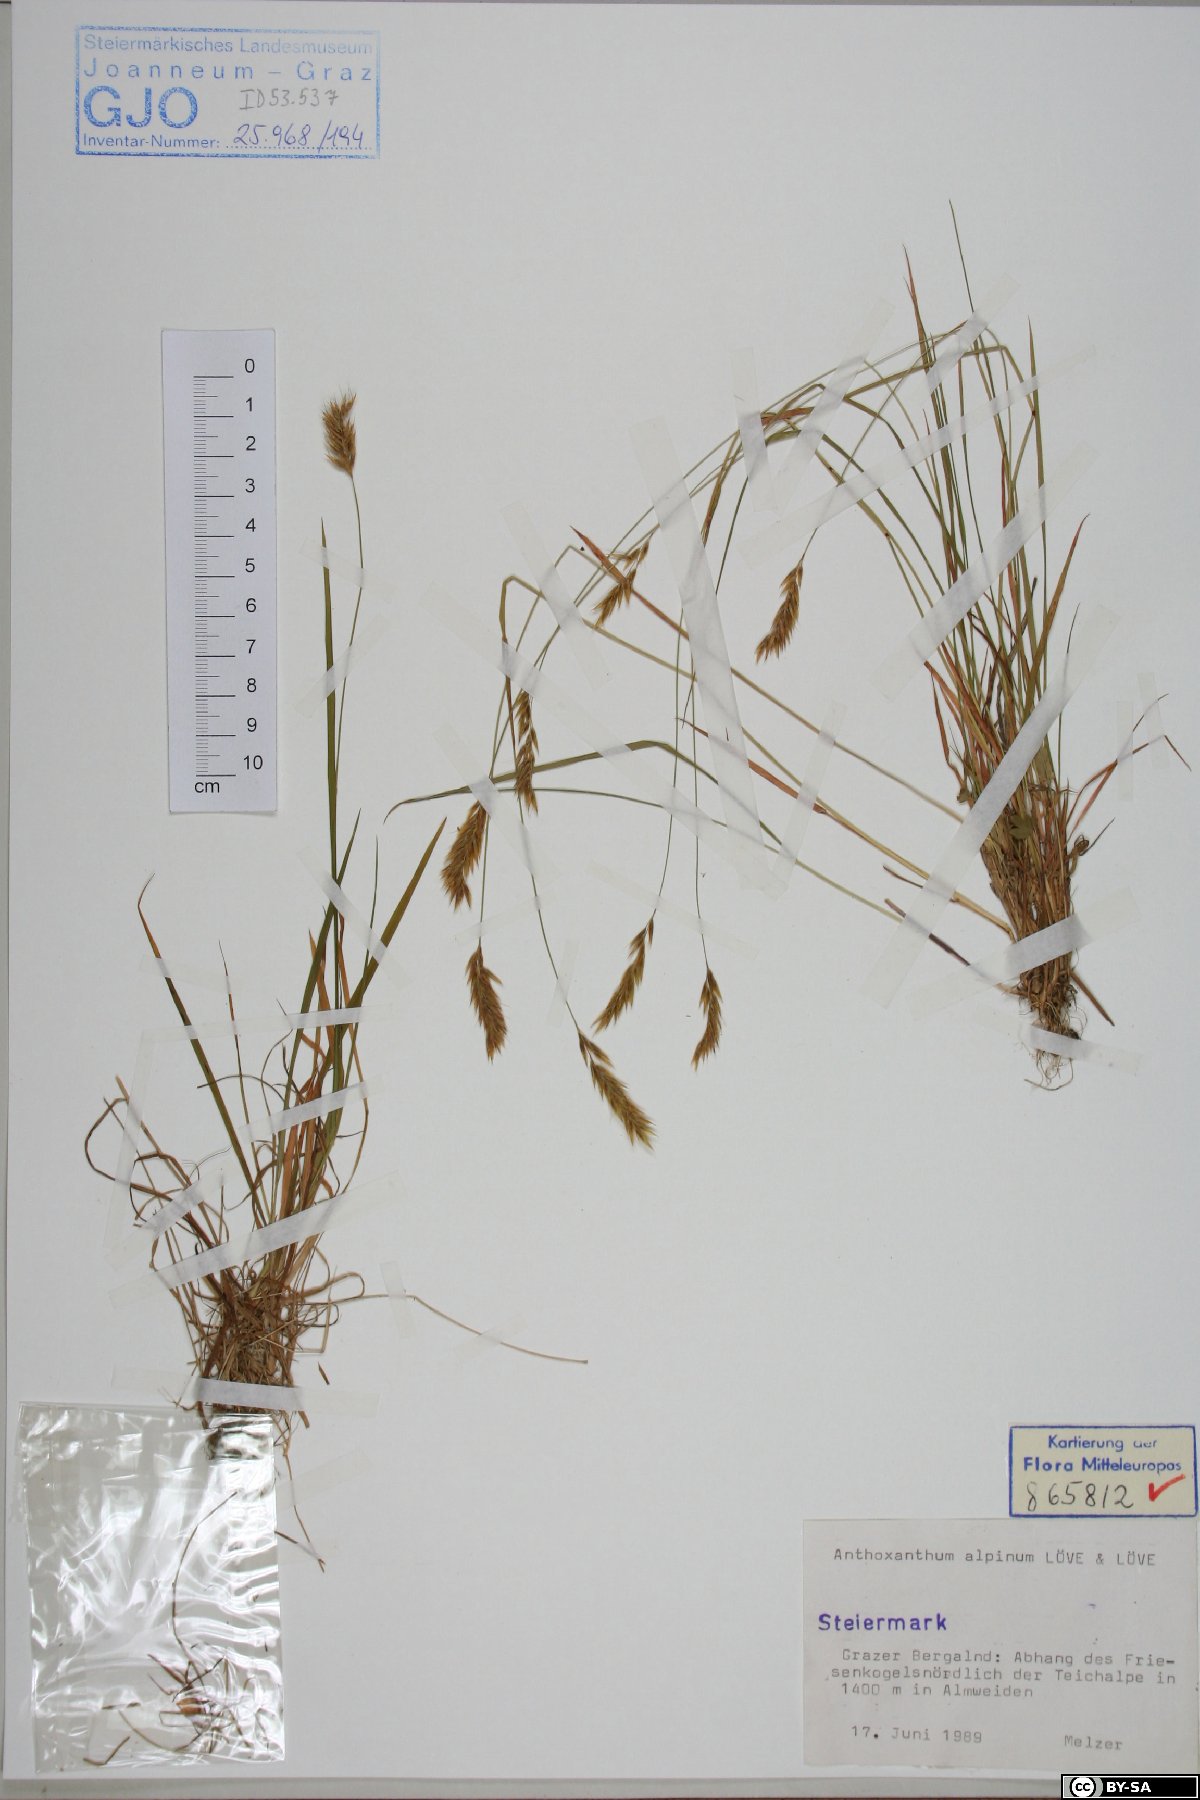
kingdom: Plantae
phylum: Tracheophyta
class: Liliopsida
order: Poales
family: Poaceae
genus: Anthoxanthum
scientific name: Anthoxanthum nipponicum
